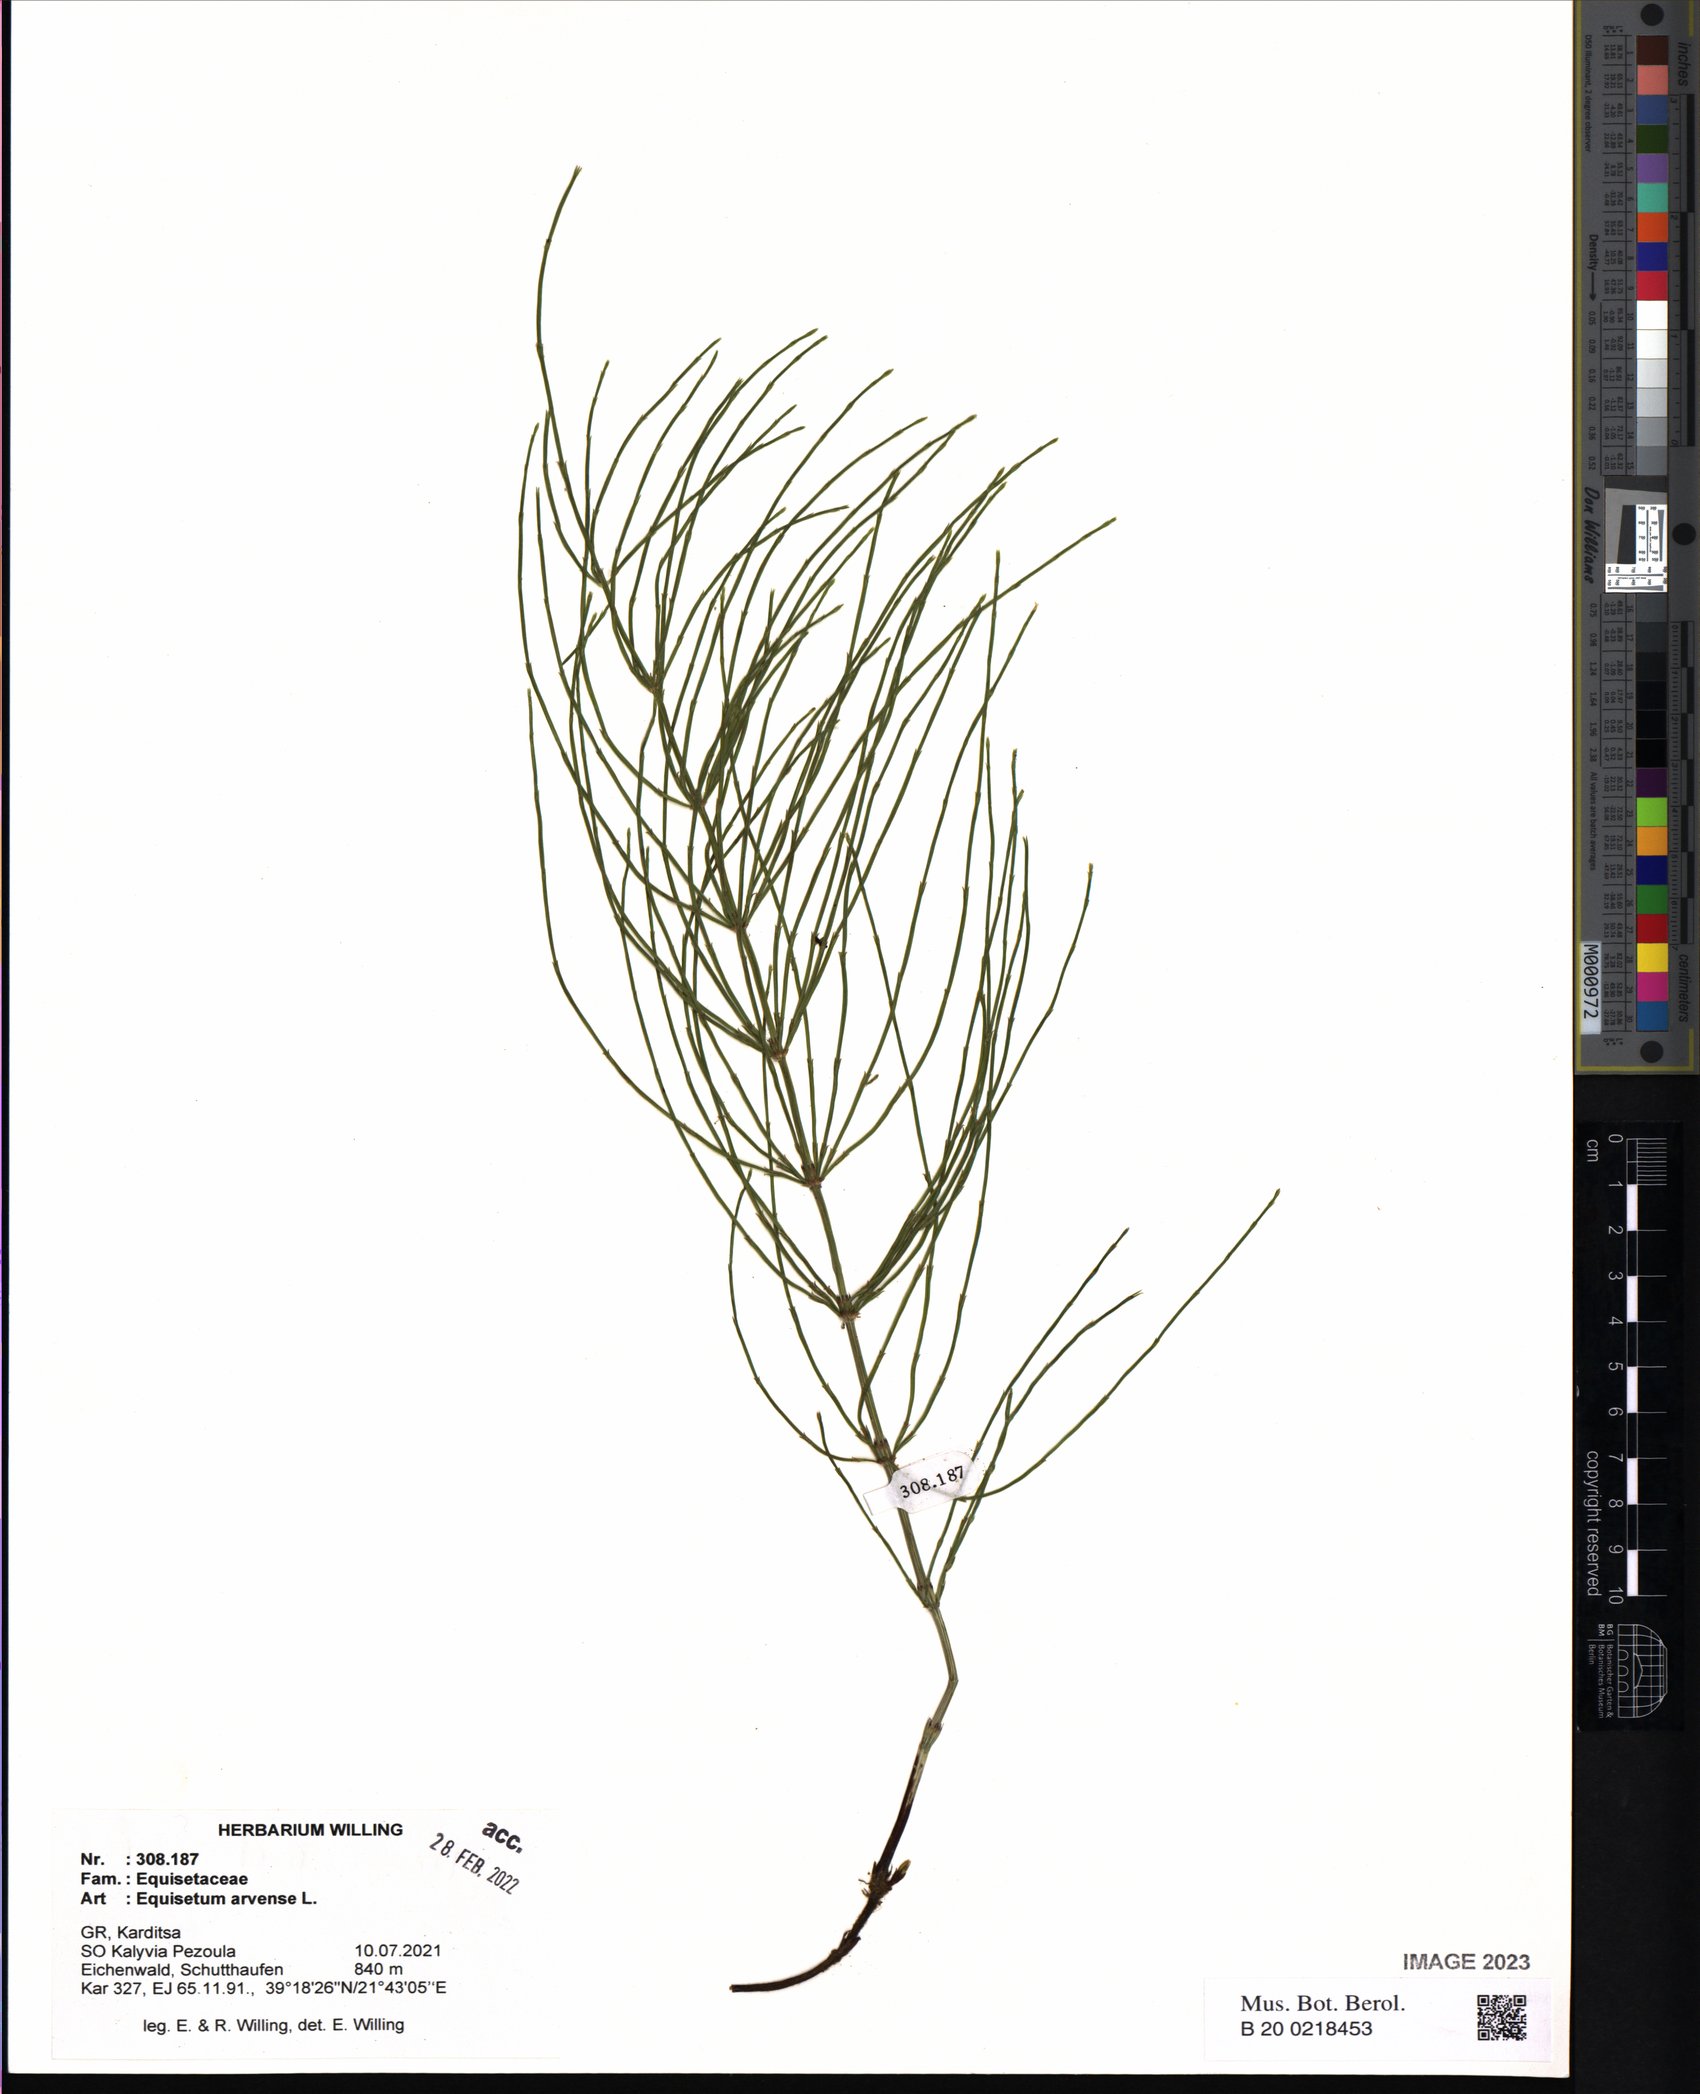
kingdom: Plantae
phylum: Tracheophyta
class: Polypodiopsida
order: Equisetales
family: Equisetaceae
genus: Equisetum
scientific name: Equisetum arvense
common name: Field horsetail
